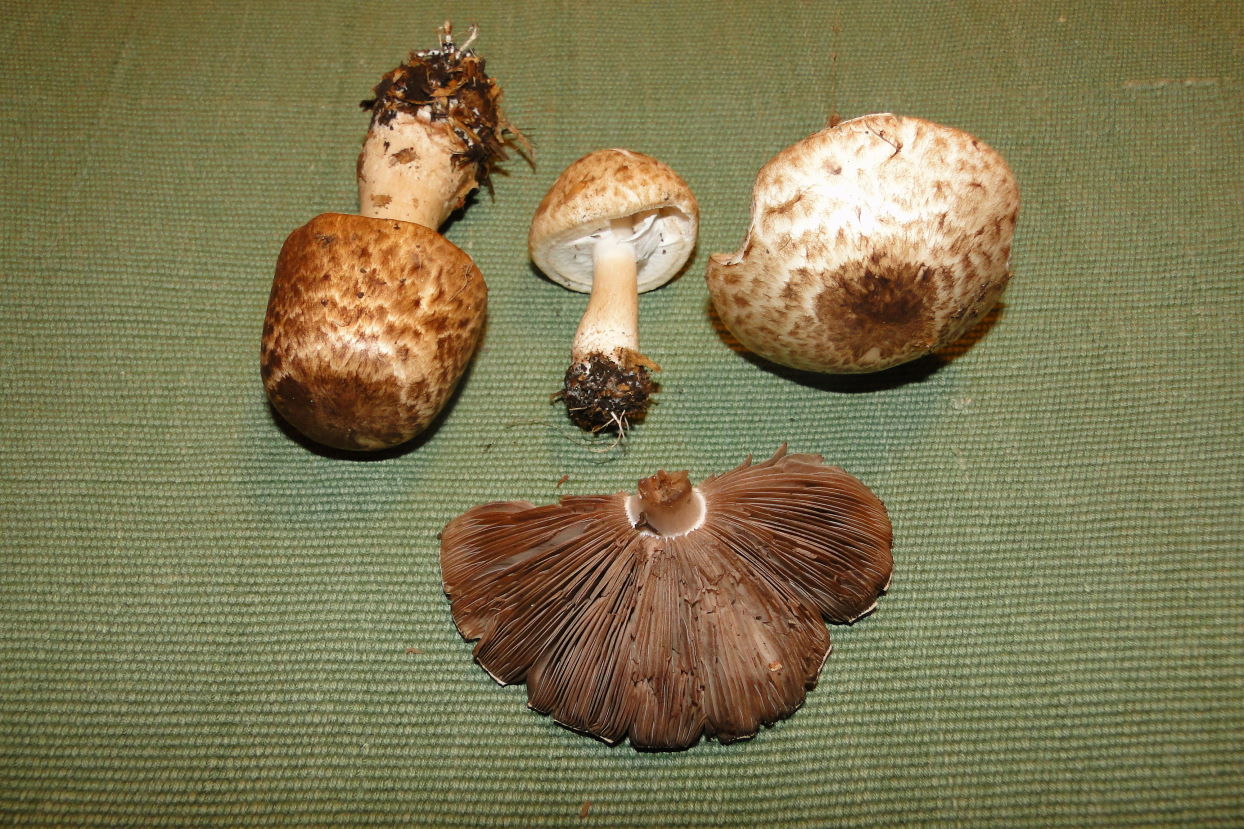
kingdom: Fungi
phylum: Basidiomycota
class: Agaricomycetes
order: Agaricales
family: Agaricaceae
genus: Agaricus
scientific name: Agaricus impudicus
